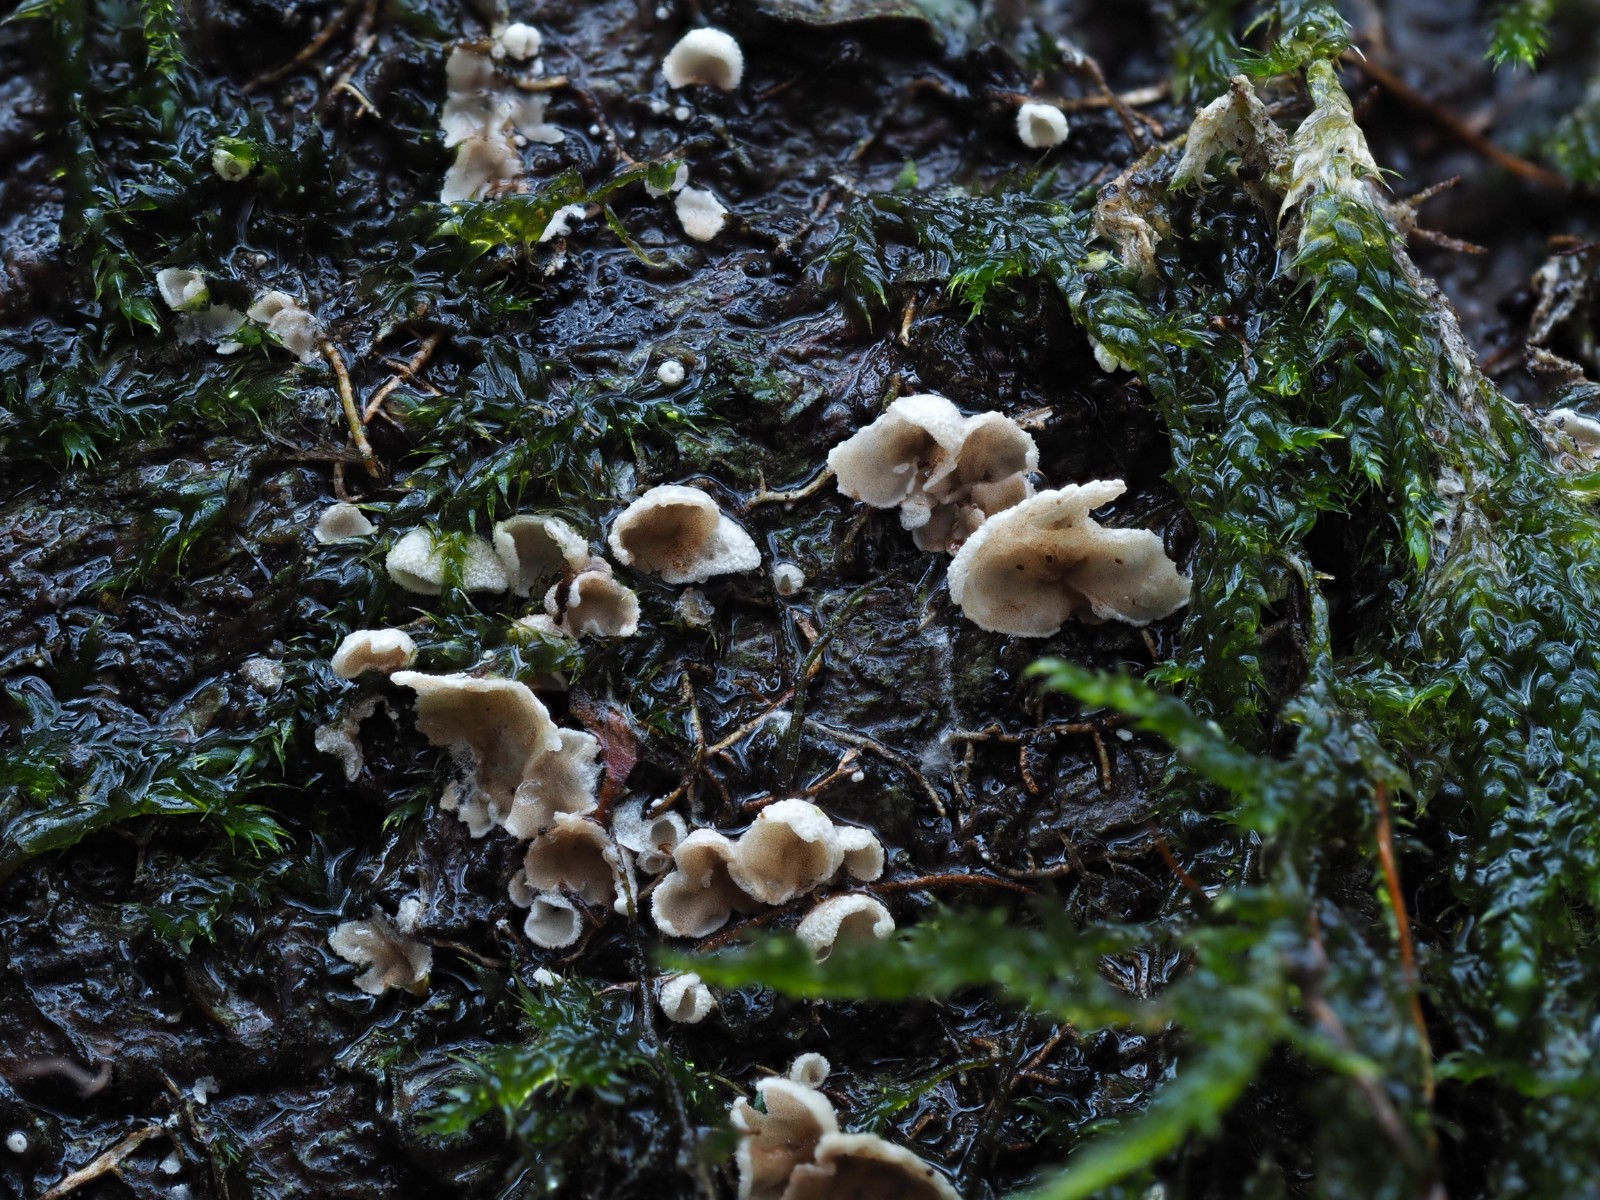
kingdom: Fungi
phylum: Basidiomycota
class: Agaricomycetes
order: Agaricales
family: Chromocyphellaceae
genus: Chromocyphella
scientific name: Chromocyphella muscicola
